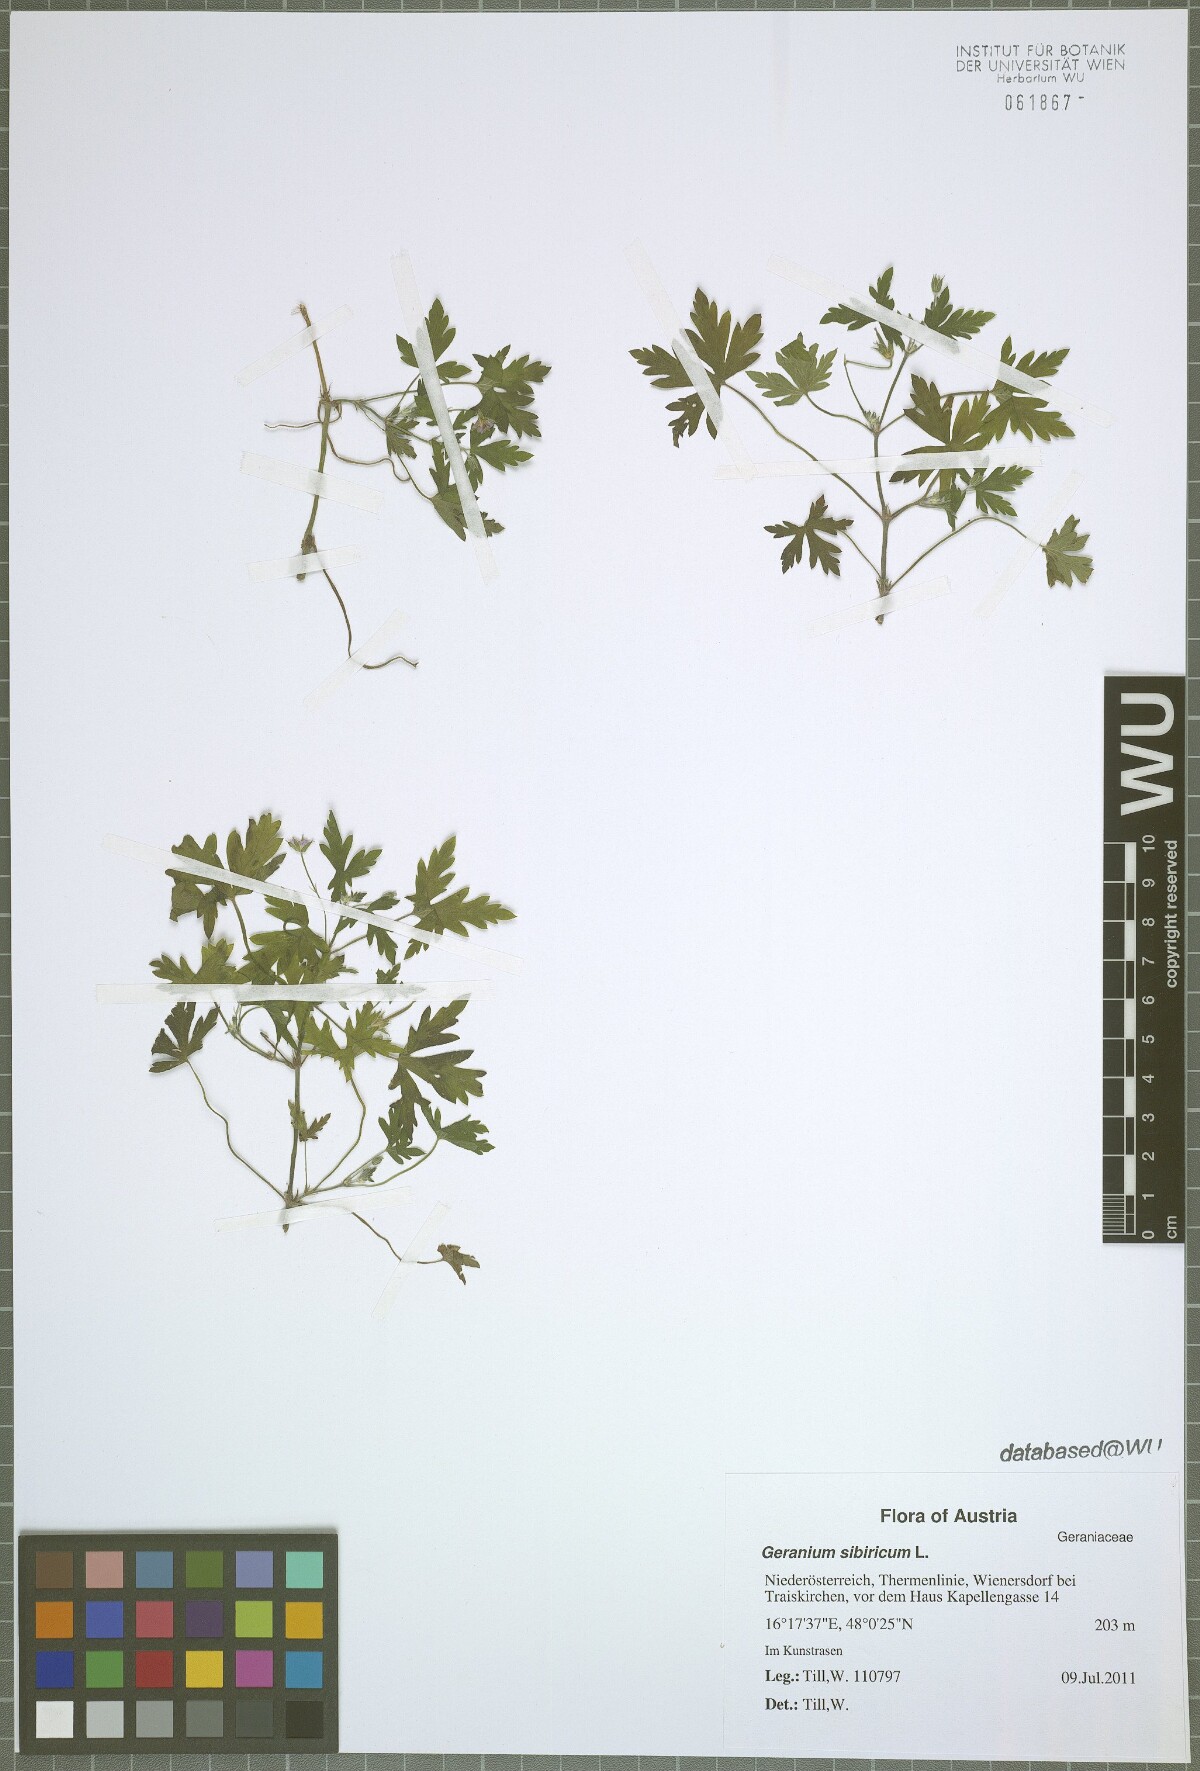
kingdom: Plantae
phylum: Tracheophyta
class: Magnoliopsida
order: Geraniales
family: Geraniaceae
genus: Geranium
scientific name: Geranium sibiricum
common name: Siberian crane's-bill
